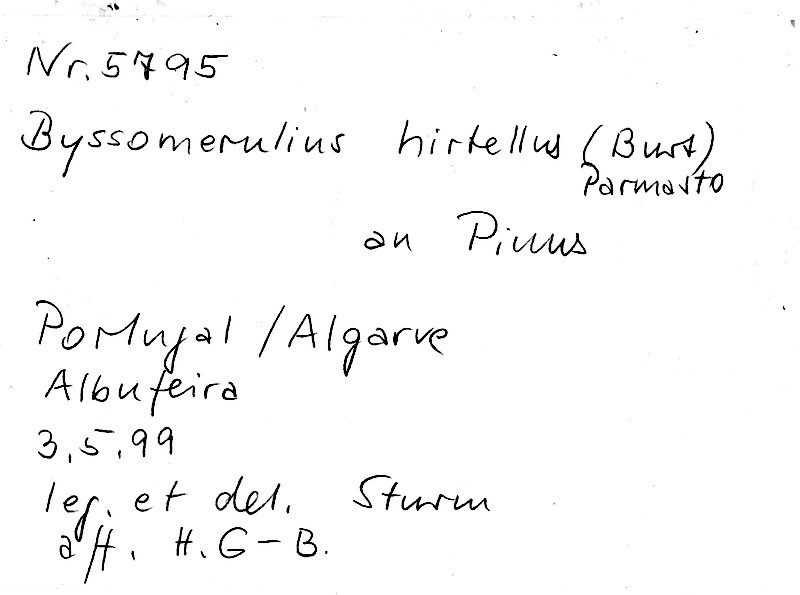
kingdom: Fungi
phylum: Basidiomycota
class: Agaricomycetes
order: Polyporales
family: Irpicaceae
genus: Byssomerulius
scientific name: Byssomerulius hirtellus
